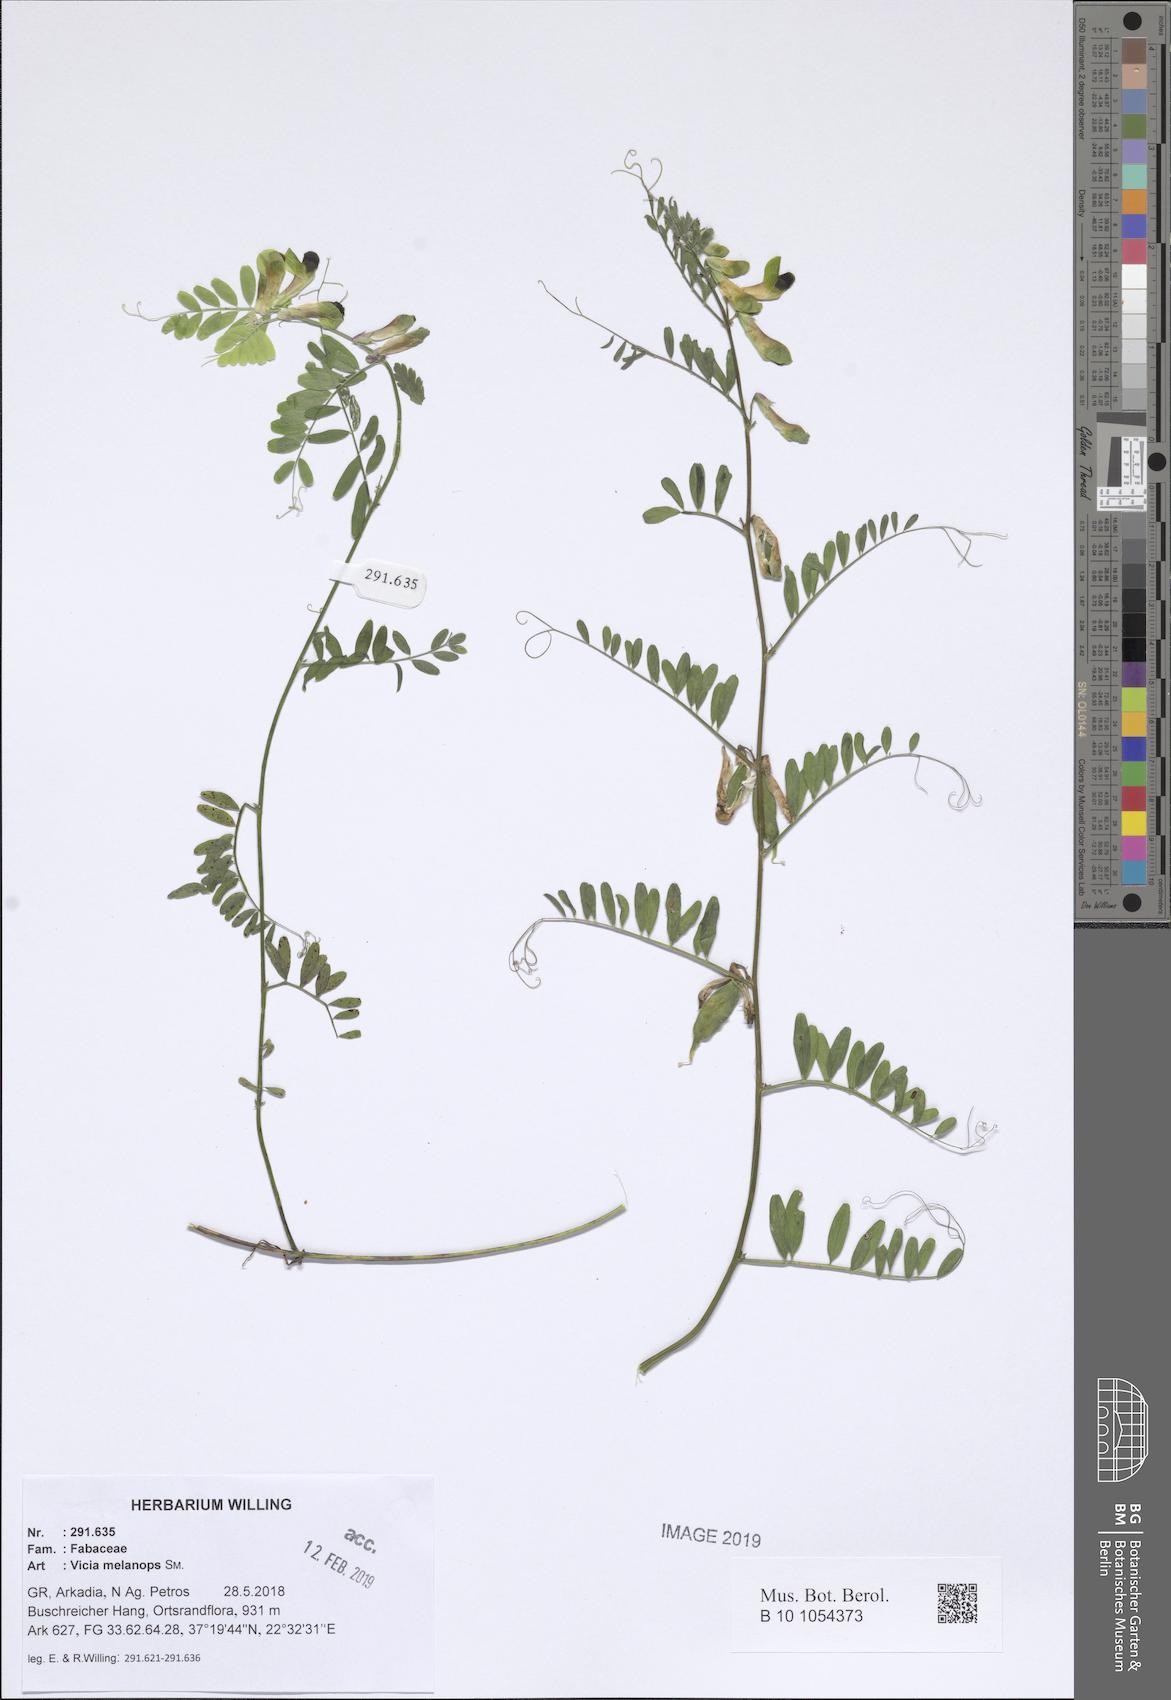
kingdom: Plantae
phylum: Tracheophyta
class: Magnoliopsida
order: Fabales
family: Fabaceae
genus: Vicia
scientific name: Vicia melanops
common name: Black-eyed vetch
